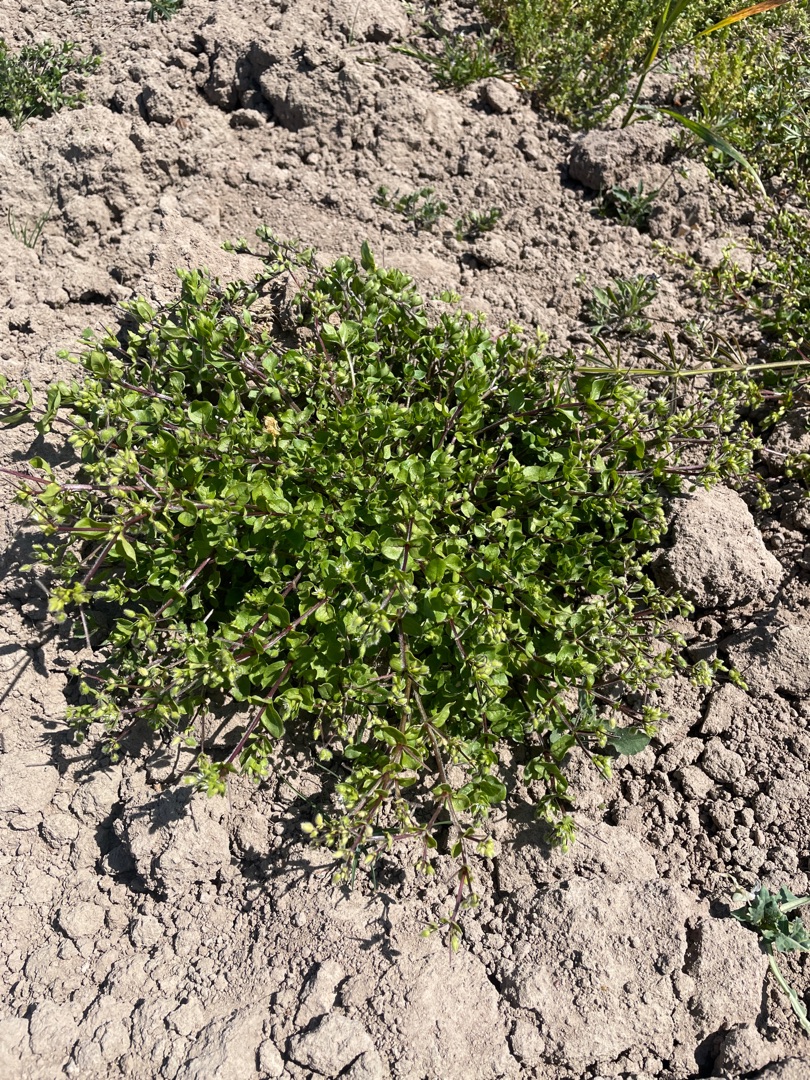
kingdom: Plantae
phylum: Tracheophyta
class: Magnoliopsida
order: Caryophyllales
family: Caryophyllaceae
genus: Stellaria
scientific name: Stellaria media
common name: Almindelig fuglegræs
